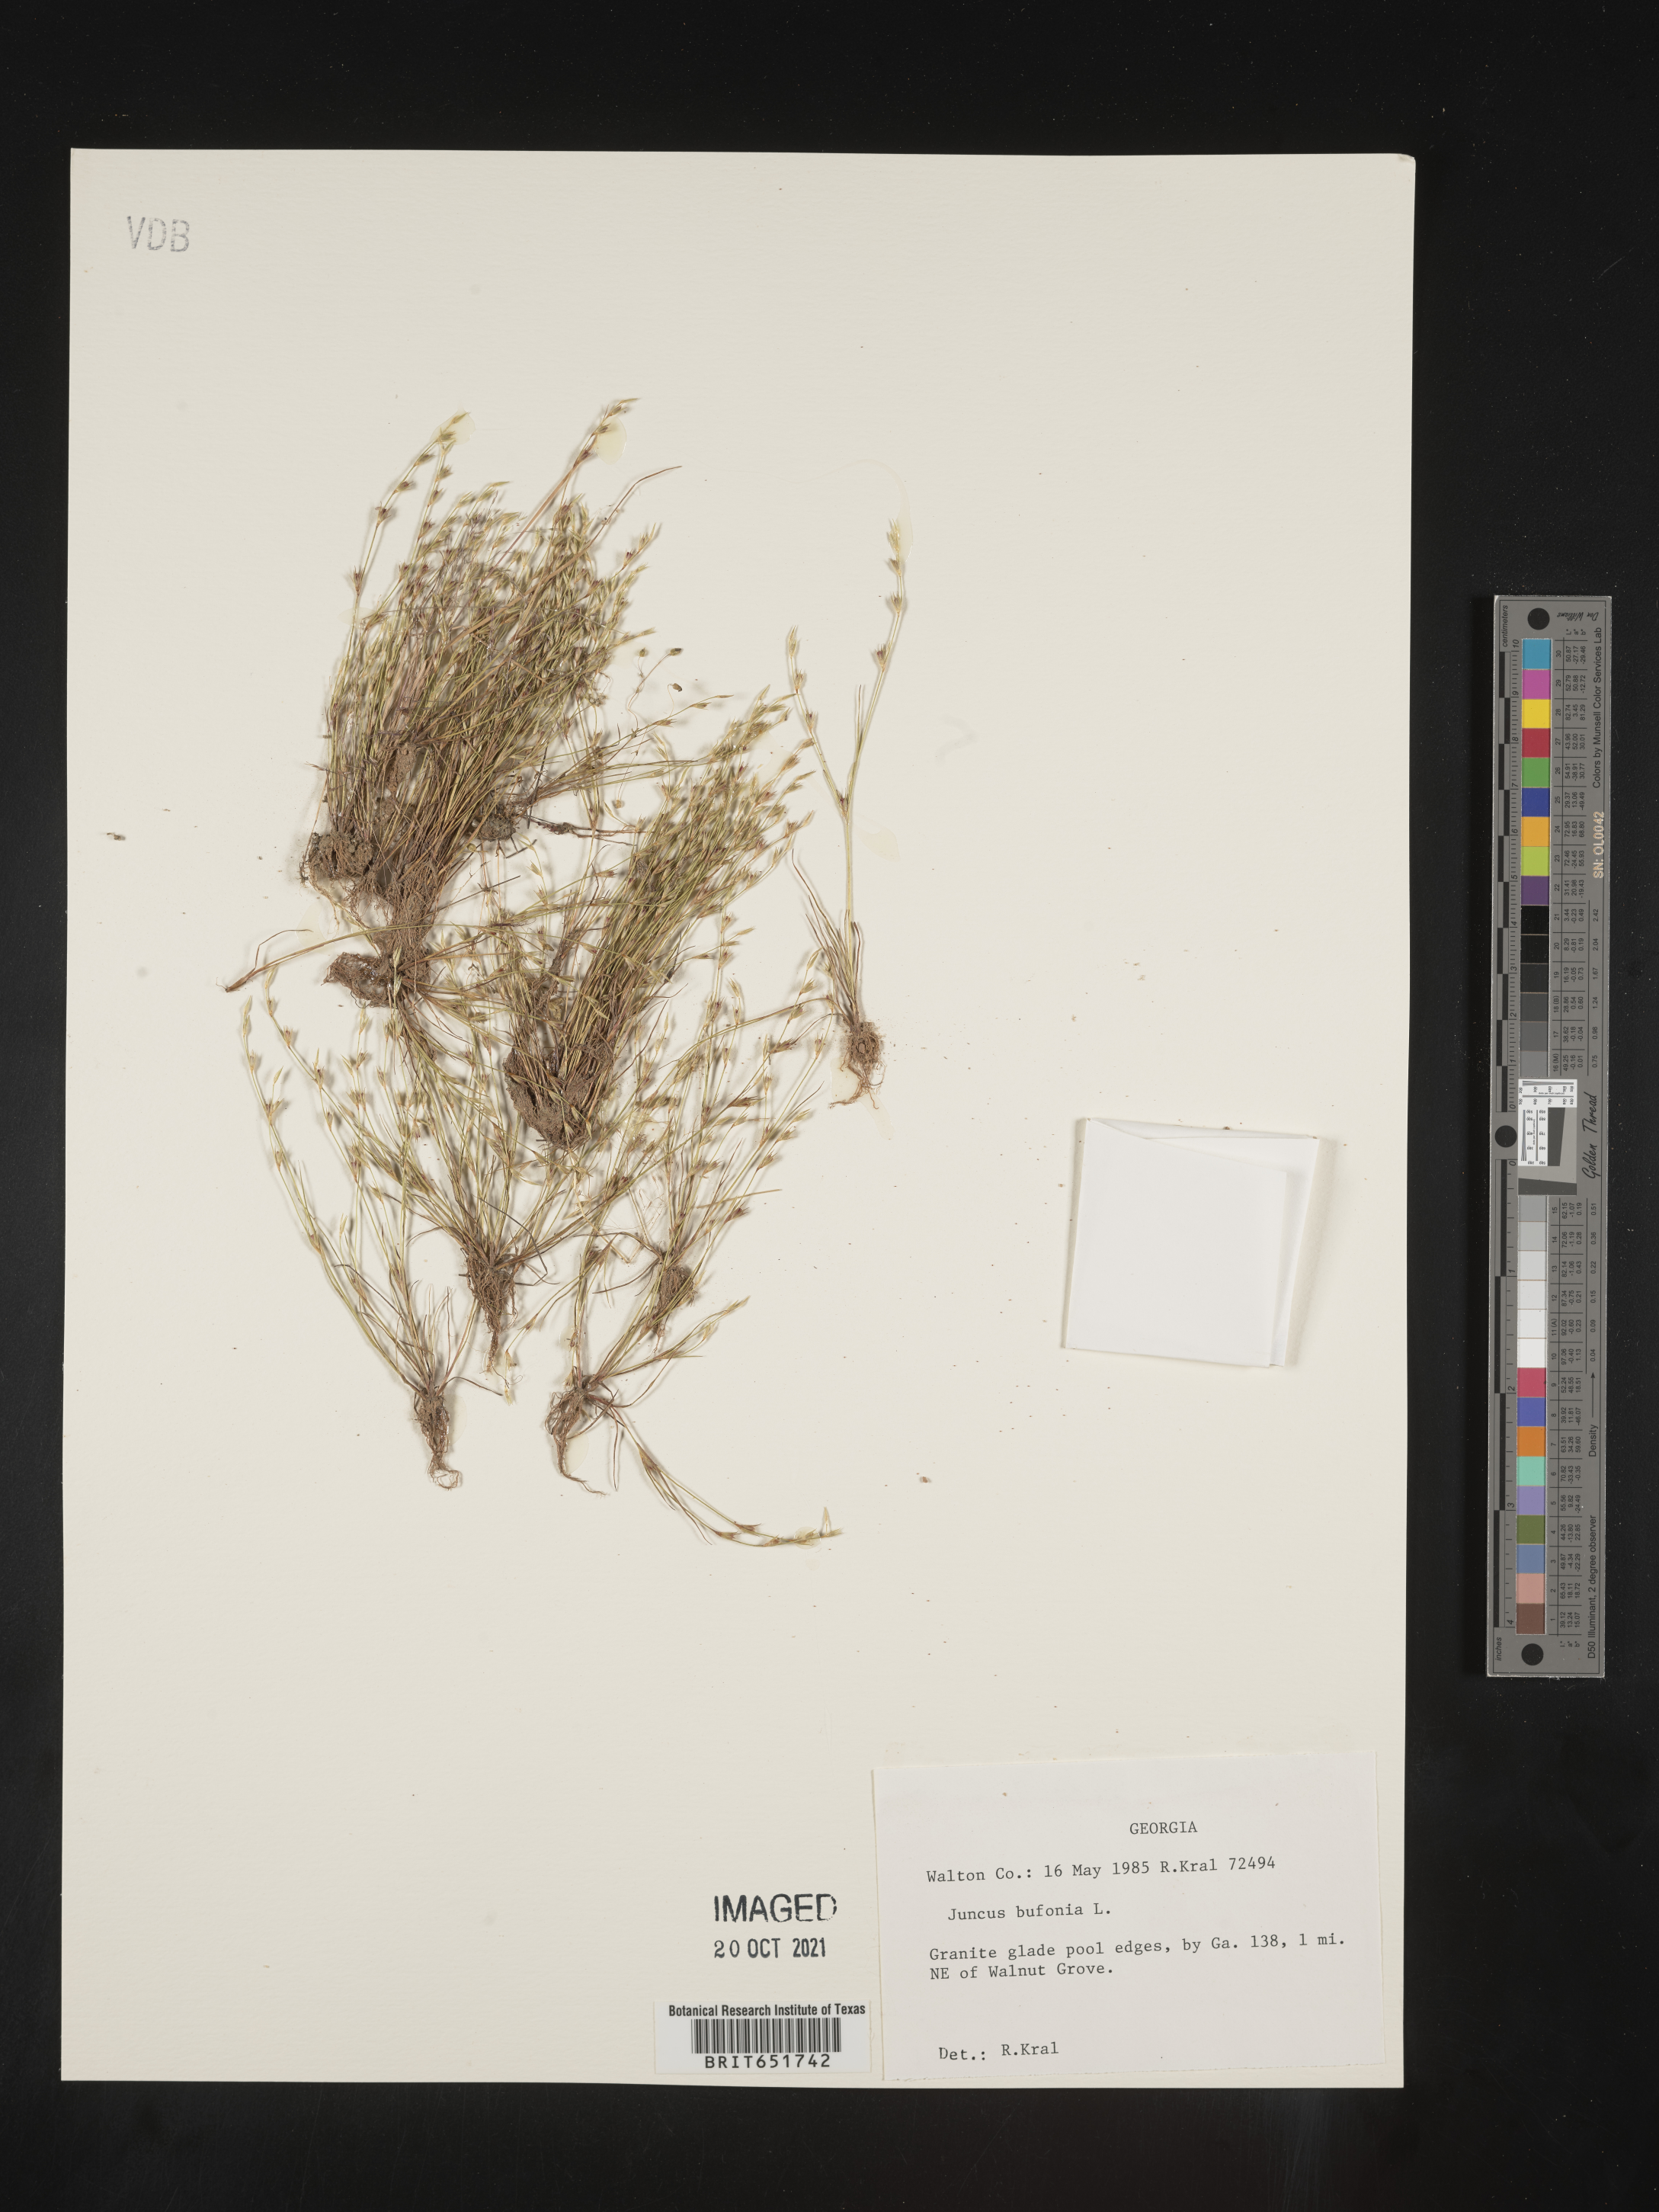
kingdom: Plantae
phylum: Tracheophyta
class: Liliopsida
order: Poales
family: Juncaceae
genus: Juncus
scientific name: Juncus bufonius
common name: Toad rush
